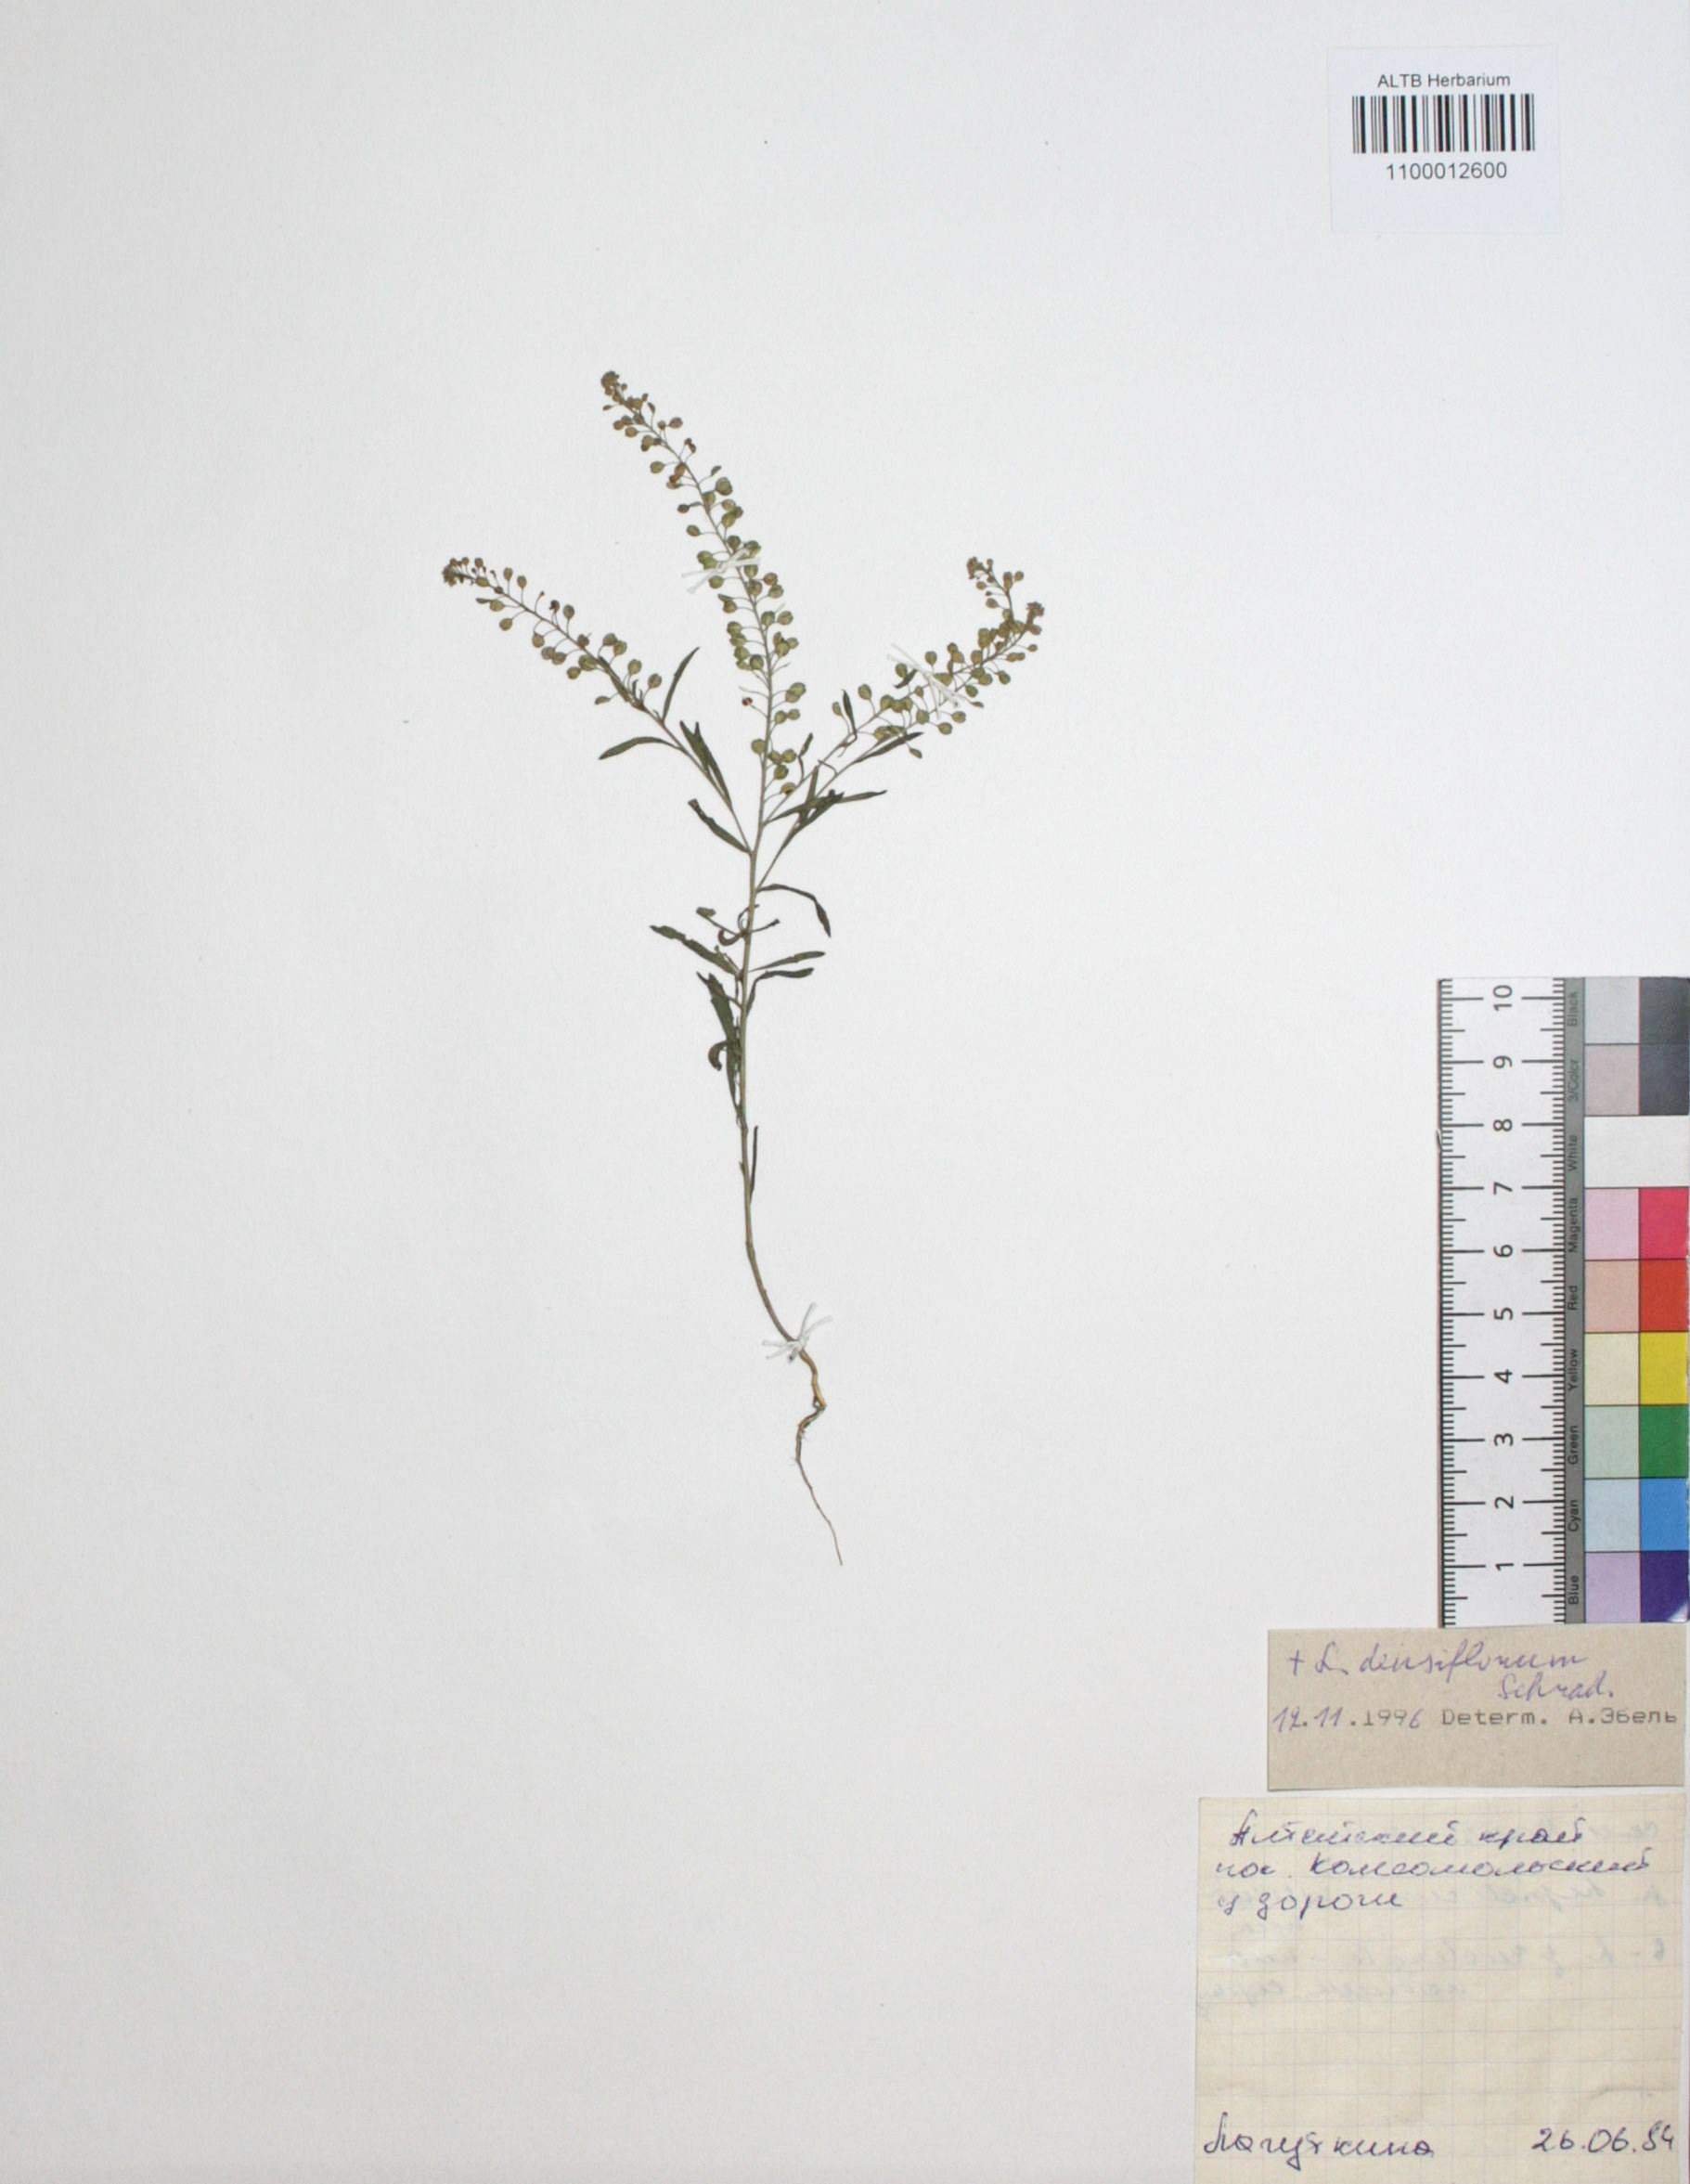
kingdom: Plantae
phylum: Tracheophyta
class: Magnoliopsida
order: Brassicales
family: Brassicaceae
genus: Lepidium
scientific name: Lepidium densiflorum
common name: Miner's pepperwort
